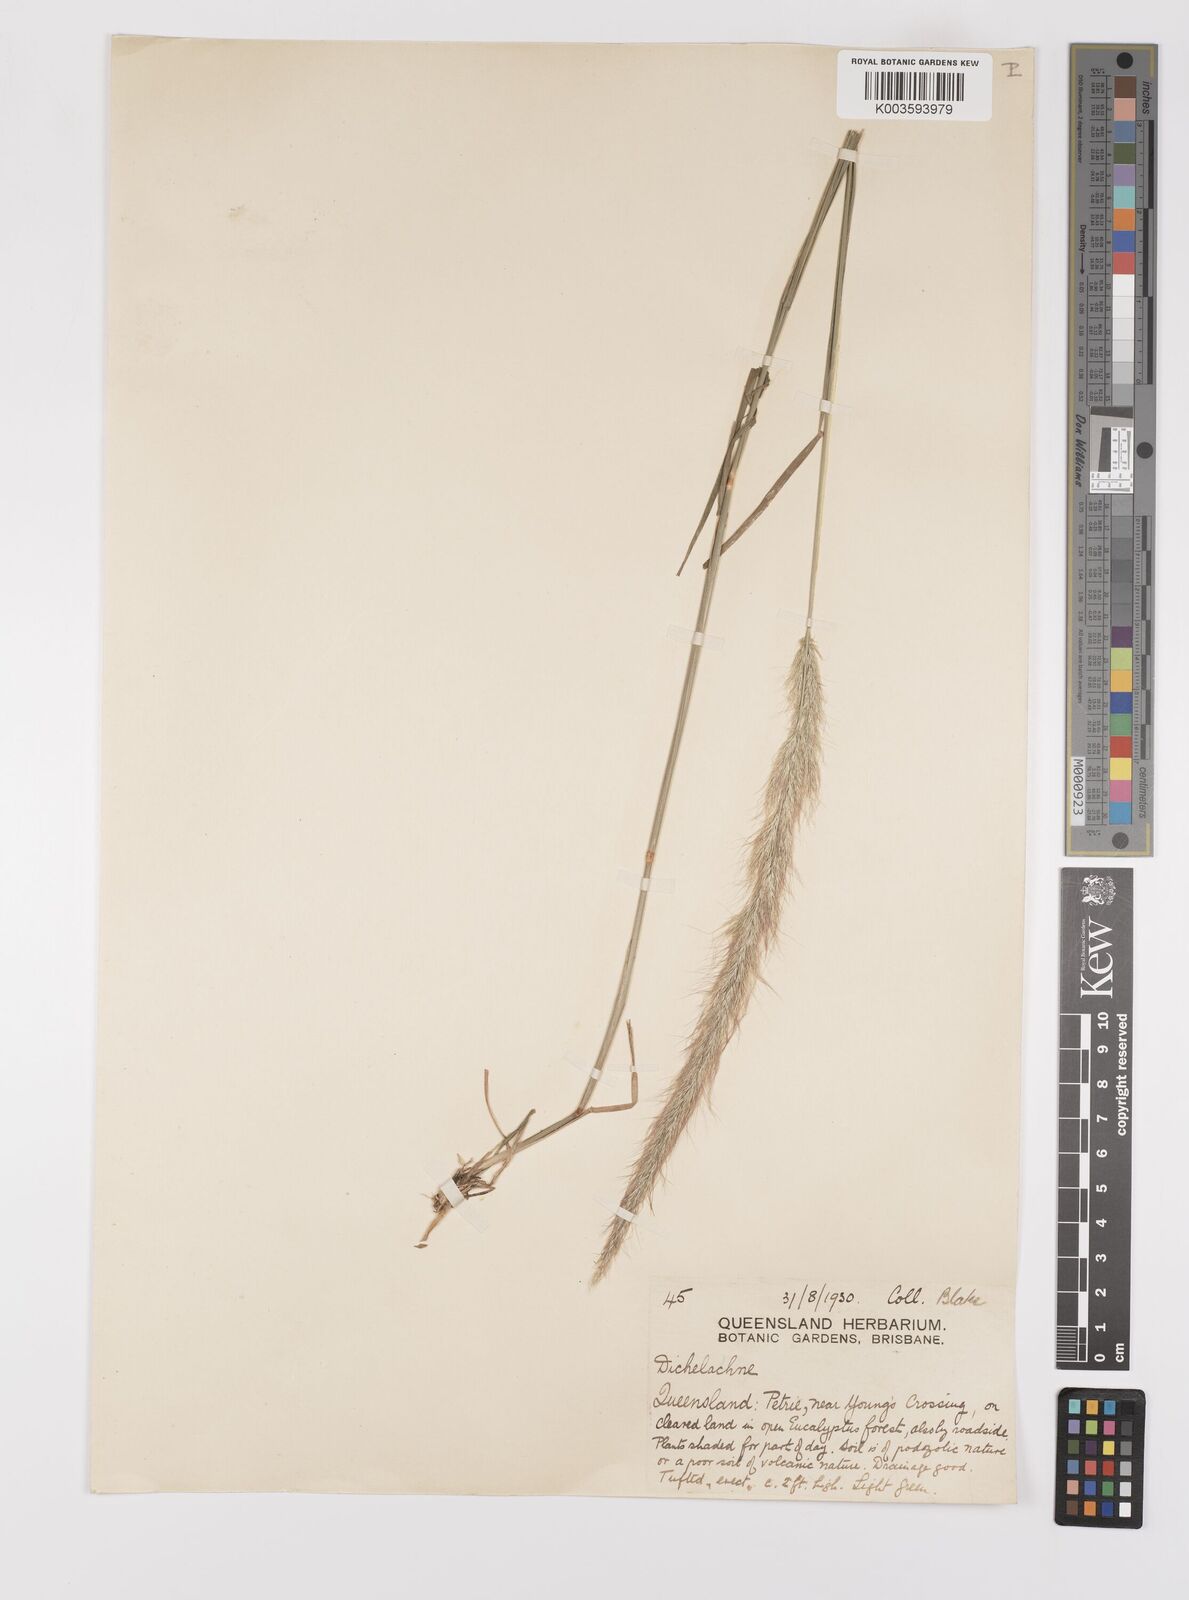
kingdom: Plantae
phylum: Tracheophyta
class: Liliopsida
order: Poales
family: Poaceae
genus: Dichelachne
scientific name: Dichelachne micrantha
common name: Plumegrass
